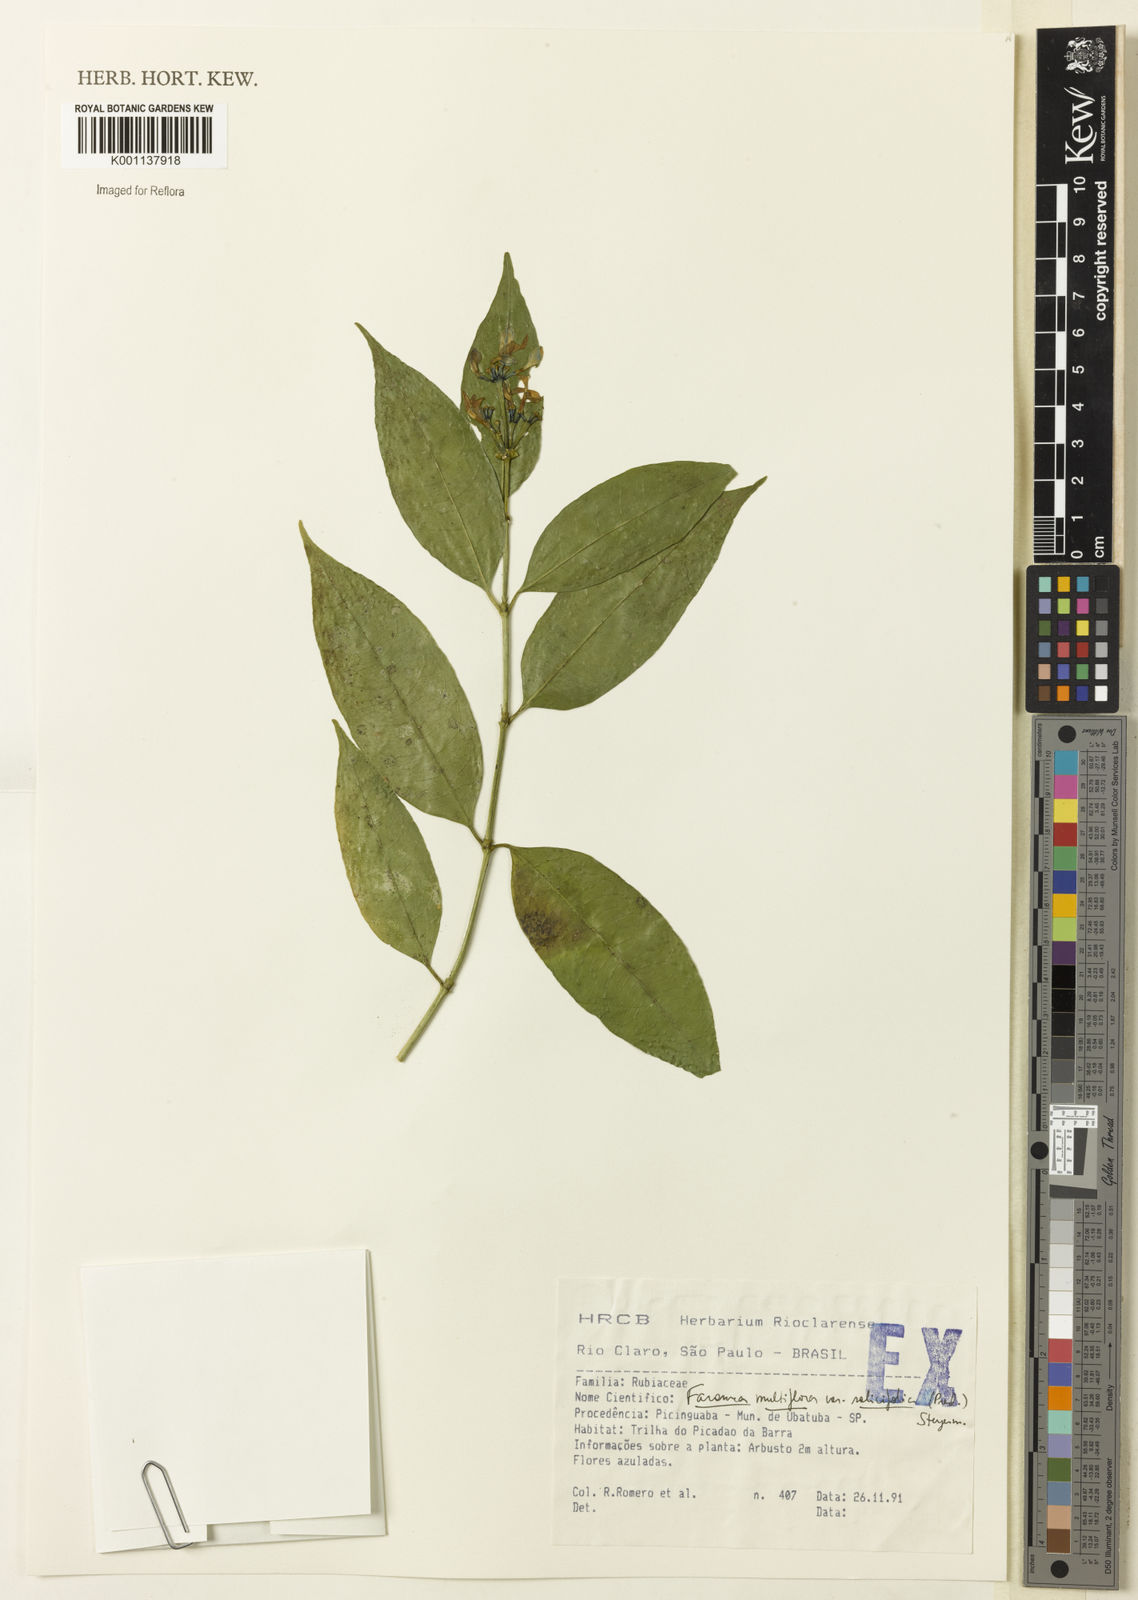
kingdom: Plantae
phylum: Tracheophyta
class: Magnoliopsida
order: Gentianales
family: Rubiaceae
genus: Faramea
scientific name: Faramea multiflora
